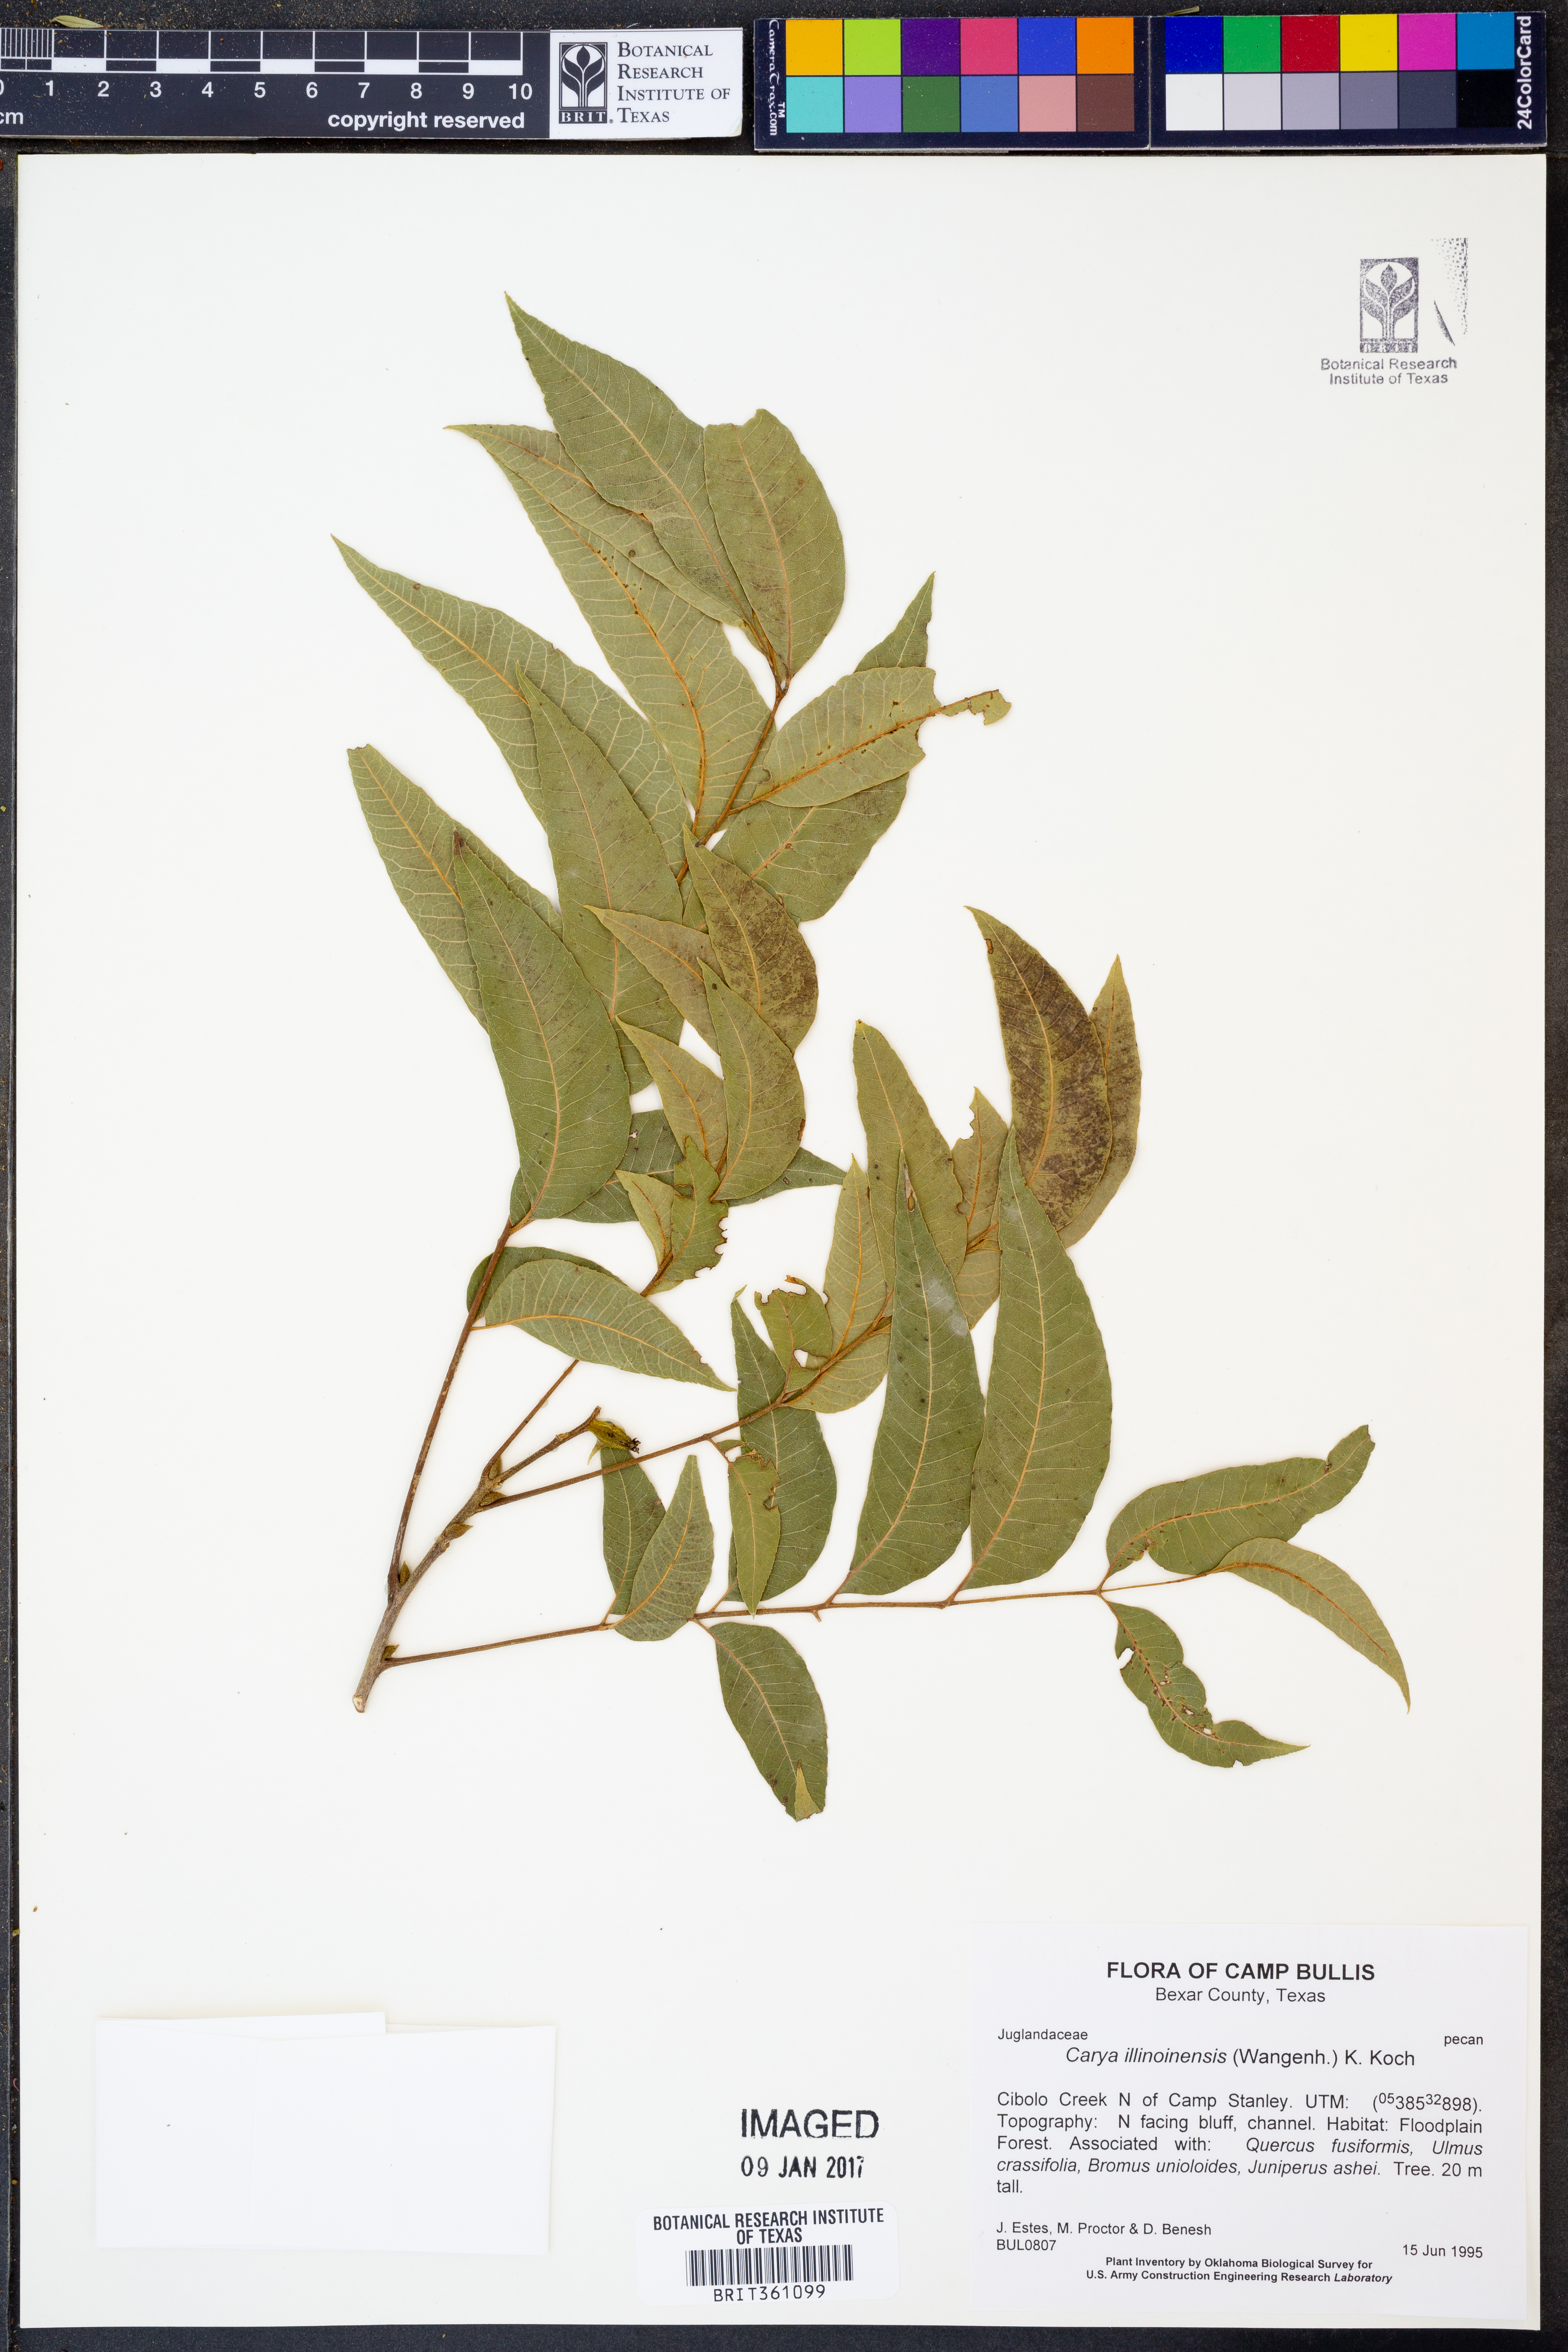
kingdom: Plantae
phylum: Tracheophyta
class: Magnoliopsida
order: Fagales
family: Juglandaceae
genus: Carya
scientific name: Carya illinoinensis
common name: Pecan
